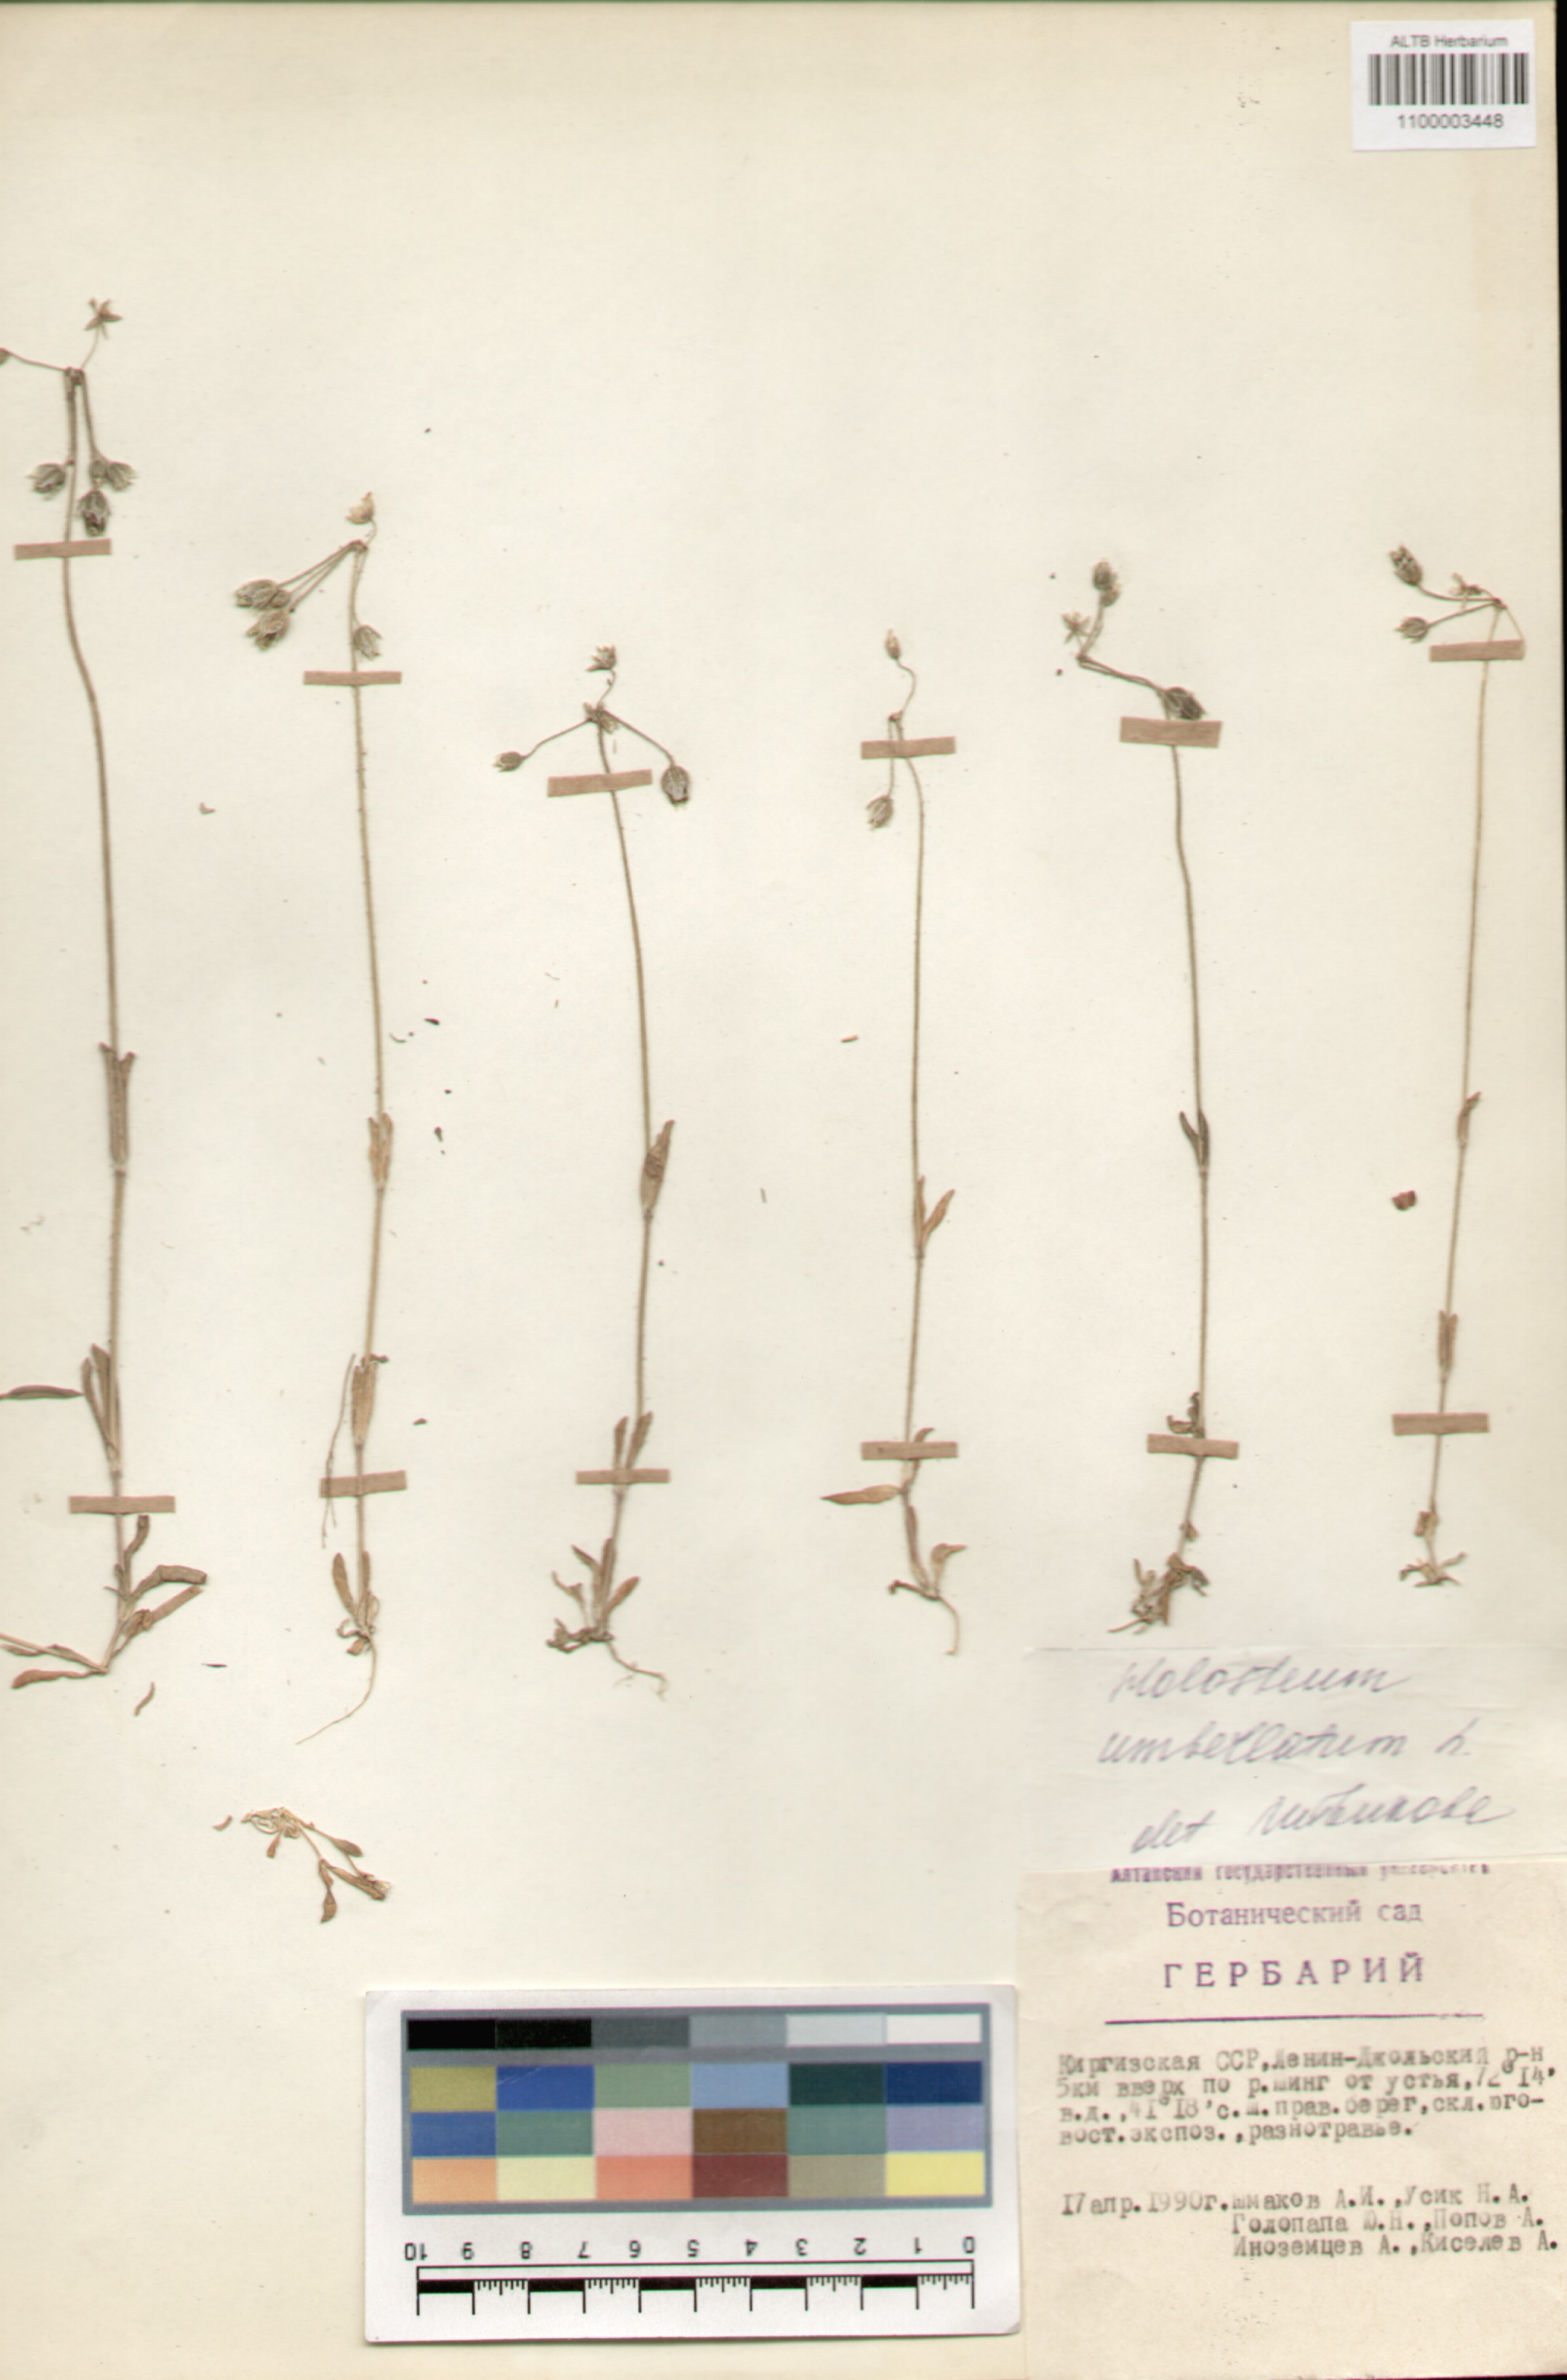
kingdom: Plantae
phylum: Tracheophyta
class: Magnoliopsida
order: Caryophyllales
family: Caryophyllaceae
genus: Holosteum
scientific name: Holosteum umbellatum
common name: Jagged chickweed
